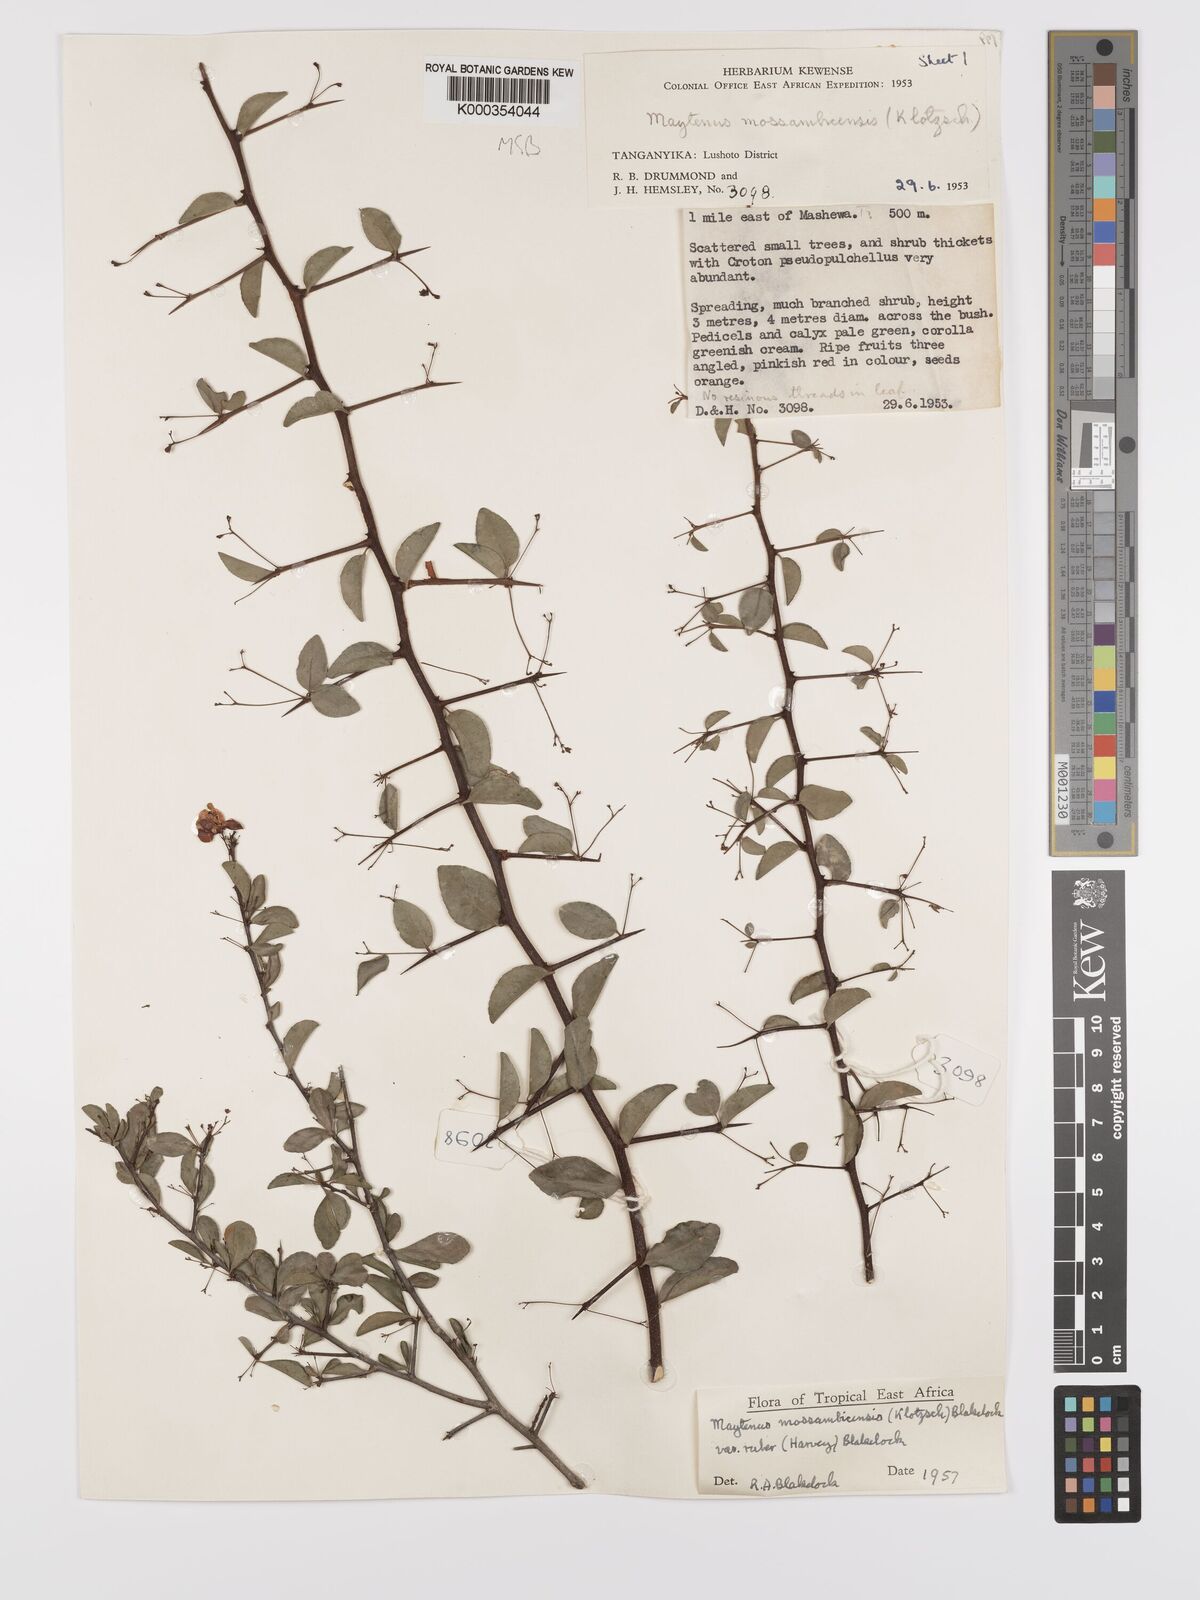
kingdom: Plantae
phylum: Tracheophyta
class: Magnoliopsida
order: Celastrales
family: Celastraceae
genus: Gymnosporia
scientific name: Gymnosporia mossambicensis
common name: Black forest spike-thorn
